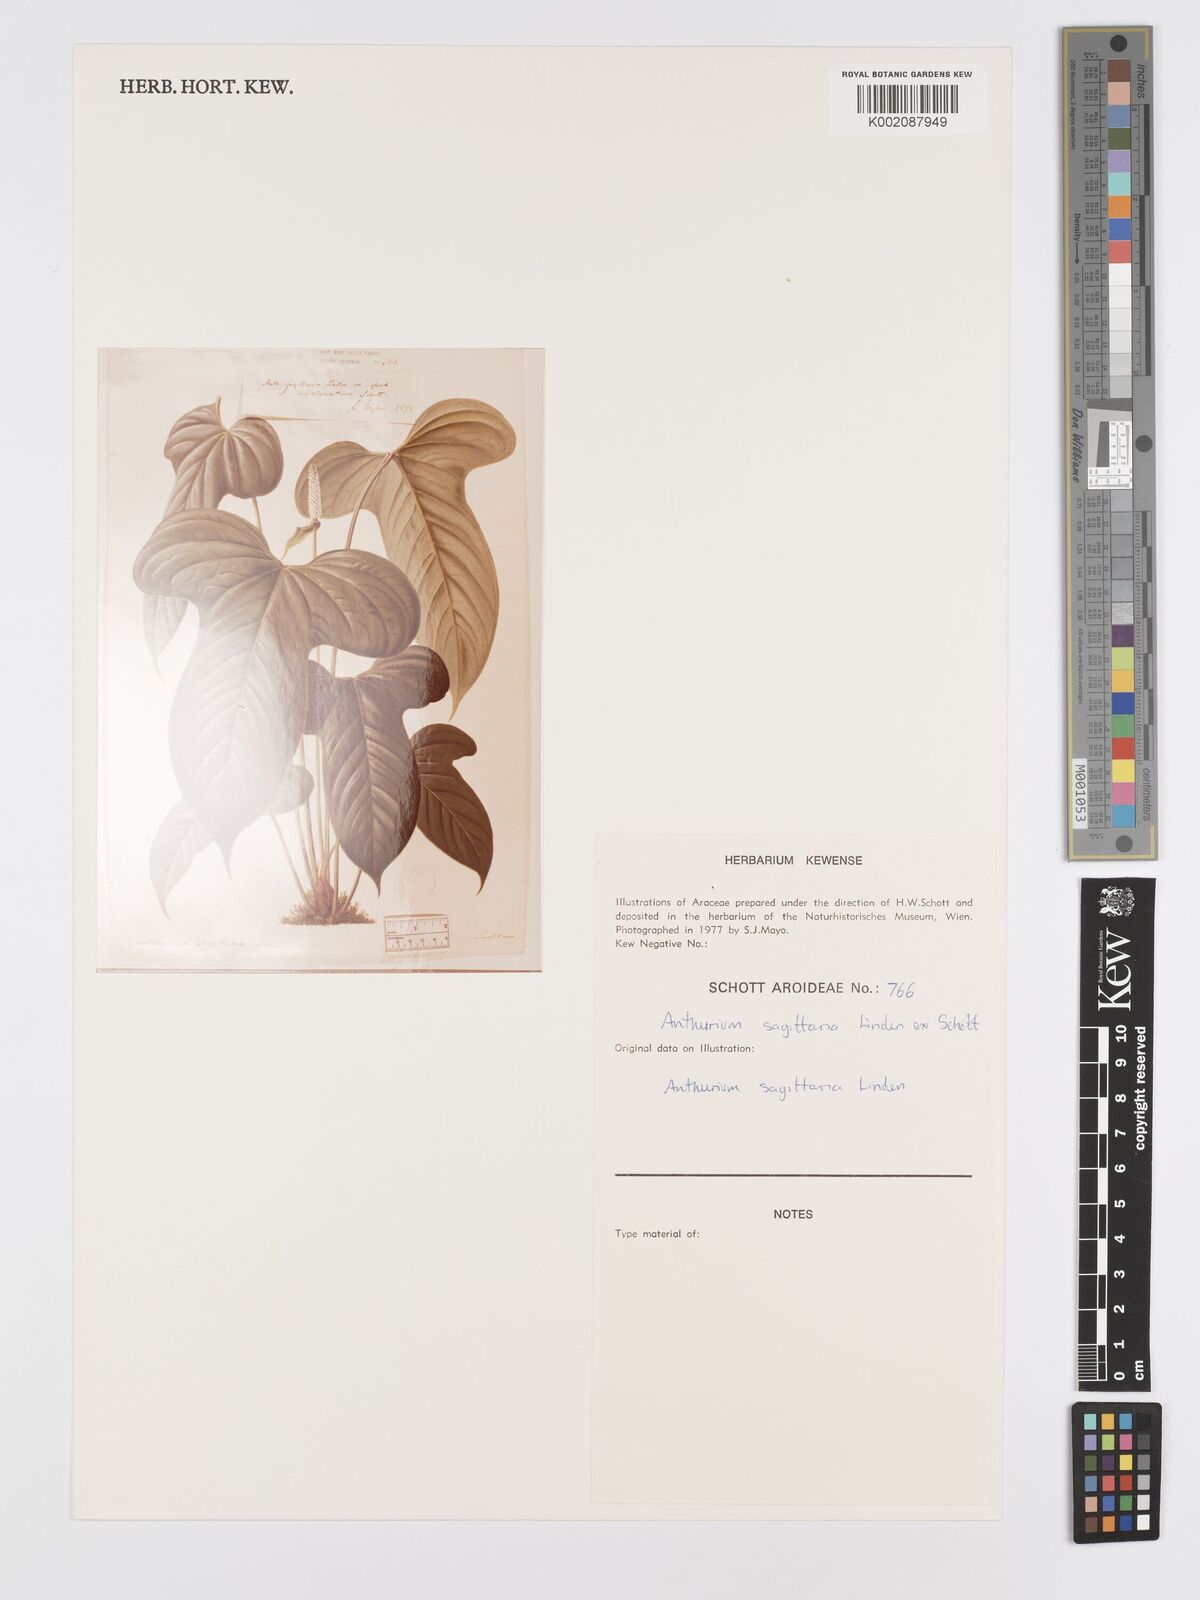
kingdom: Plantae
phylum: Tracheophyta
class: Liliopsida
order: Alismatales
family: Araceae
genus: Anthurium
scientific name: Anthurium sagittaria
